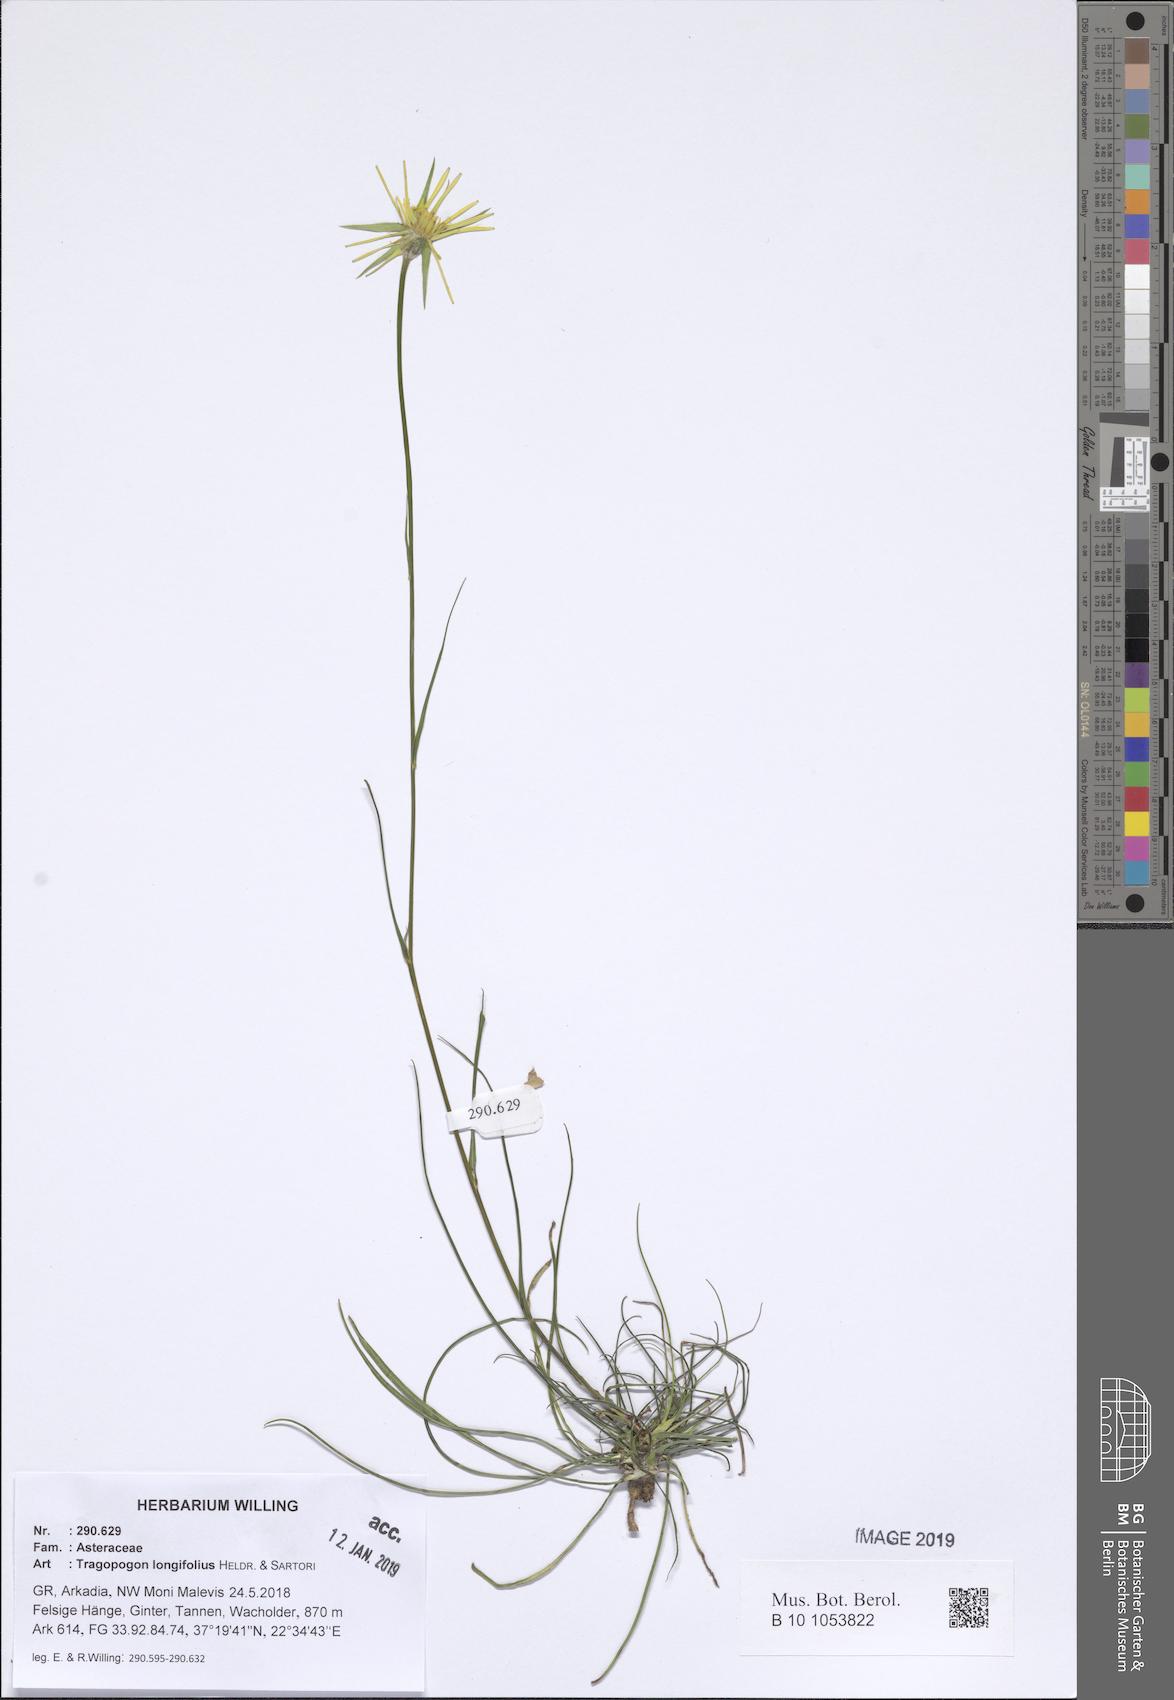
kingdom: Plantae
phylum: Tracheophyta
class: Magnoliopsida
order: Asterales
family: Asteraceae
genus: Tragopogon
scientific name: Tragopogon longifolius
